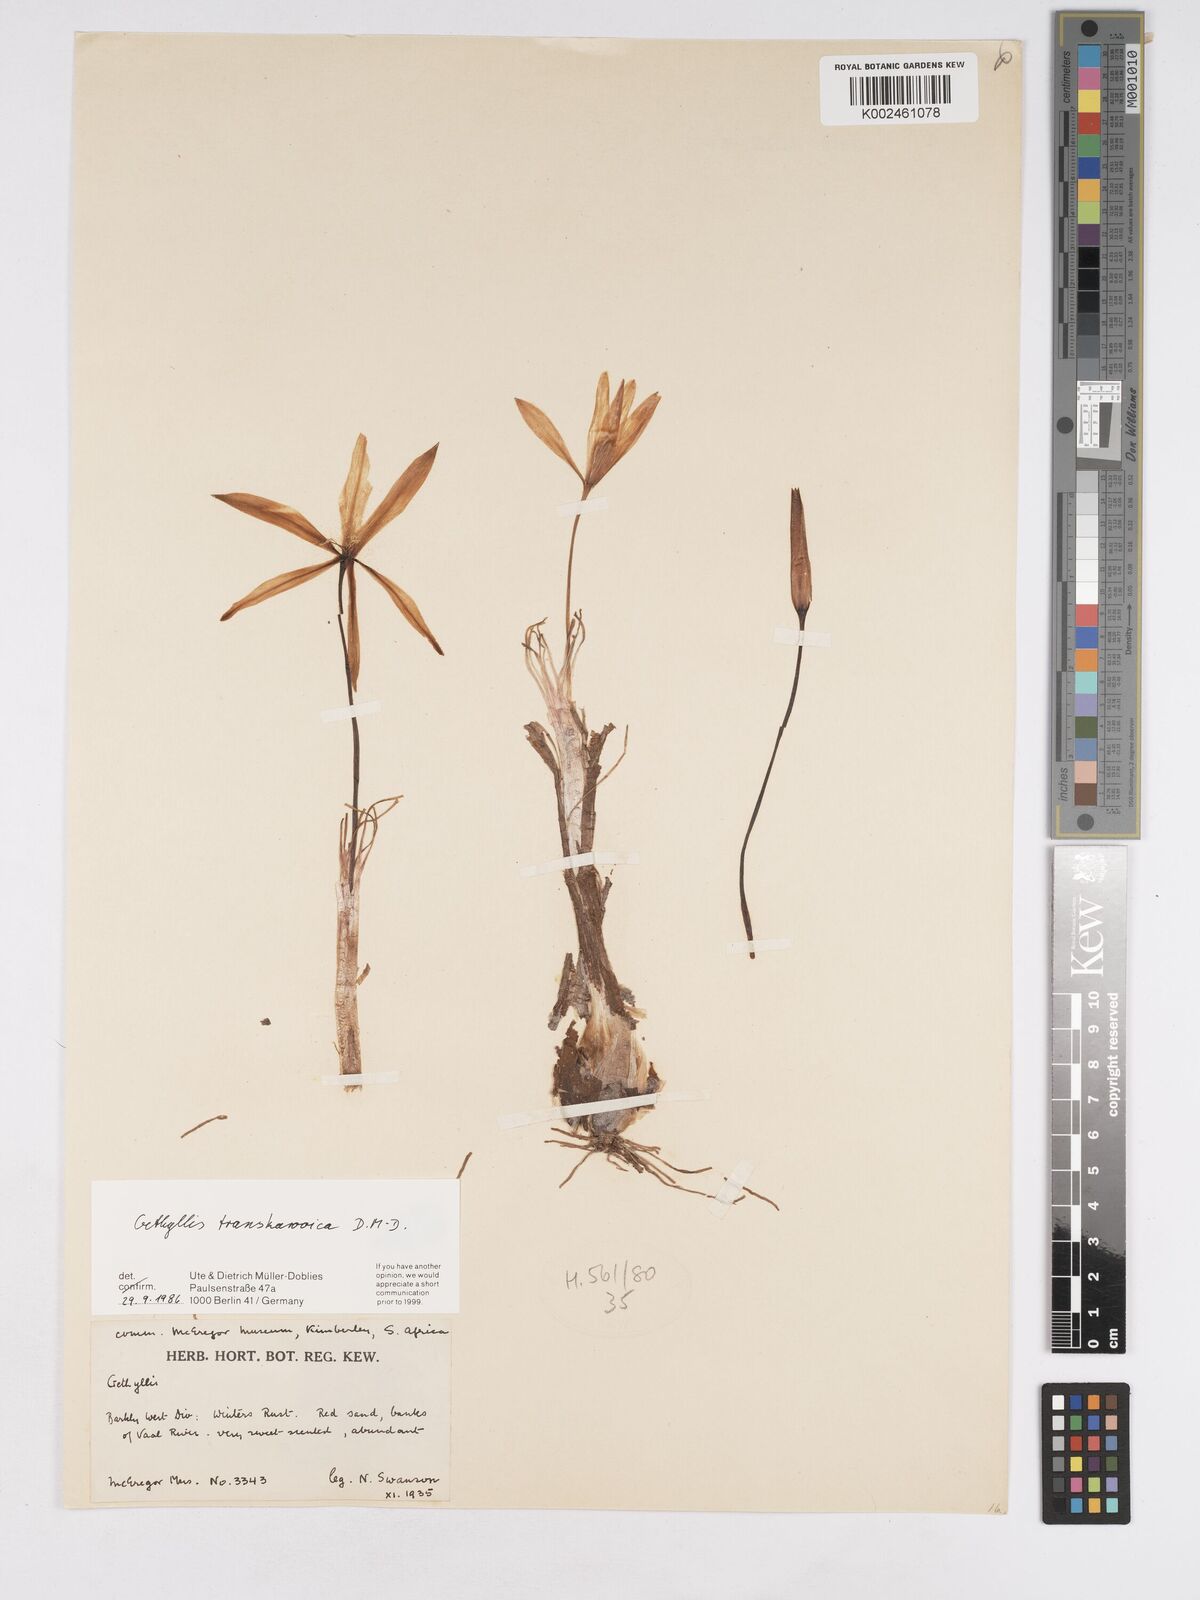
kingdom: Plantae
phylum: Tracheophyta
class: Liliopsida
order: Asparagales
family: Amaryllidaceae
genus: Gethyllis
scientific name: Gethyllis transkarooica
